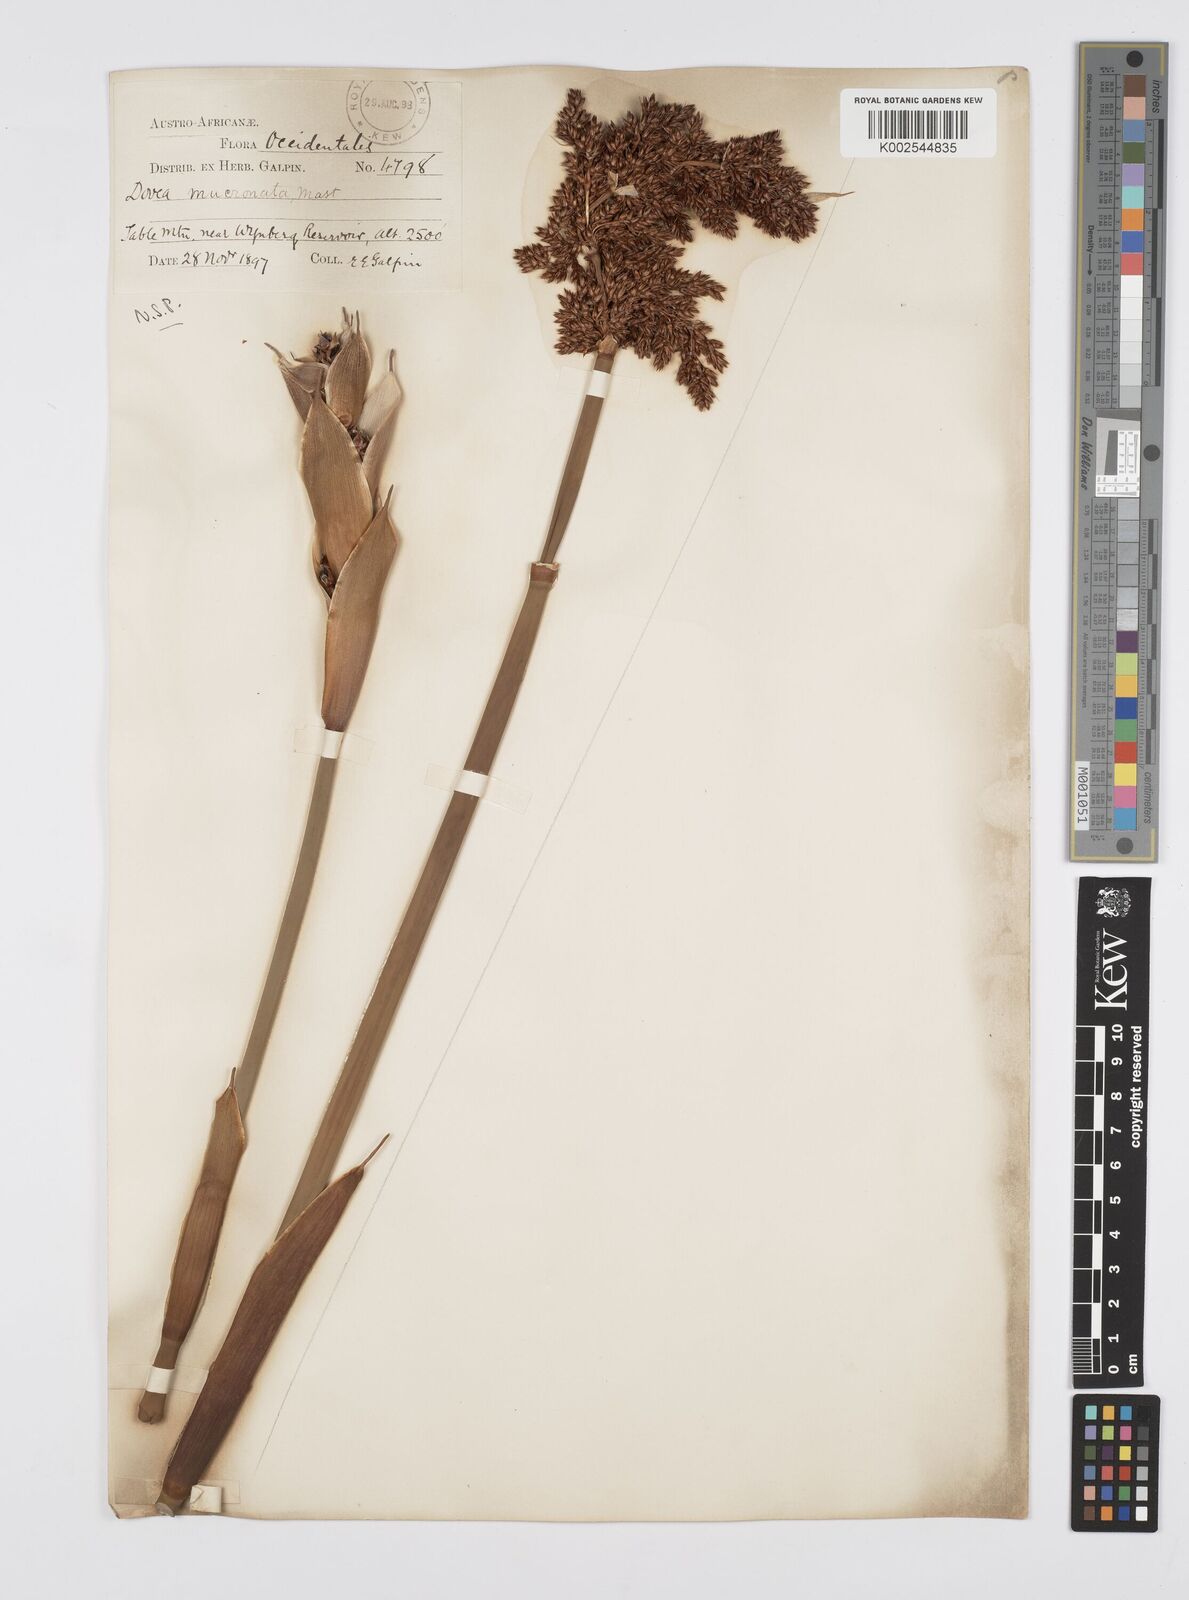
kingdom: Plantae
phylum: Tracheophyta
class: Liliopsida
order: Poales
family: Restionaceae
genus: Elegia
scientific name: Elegia mucronata
